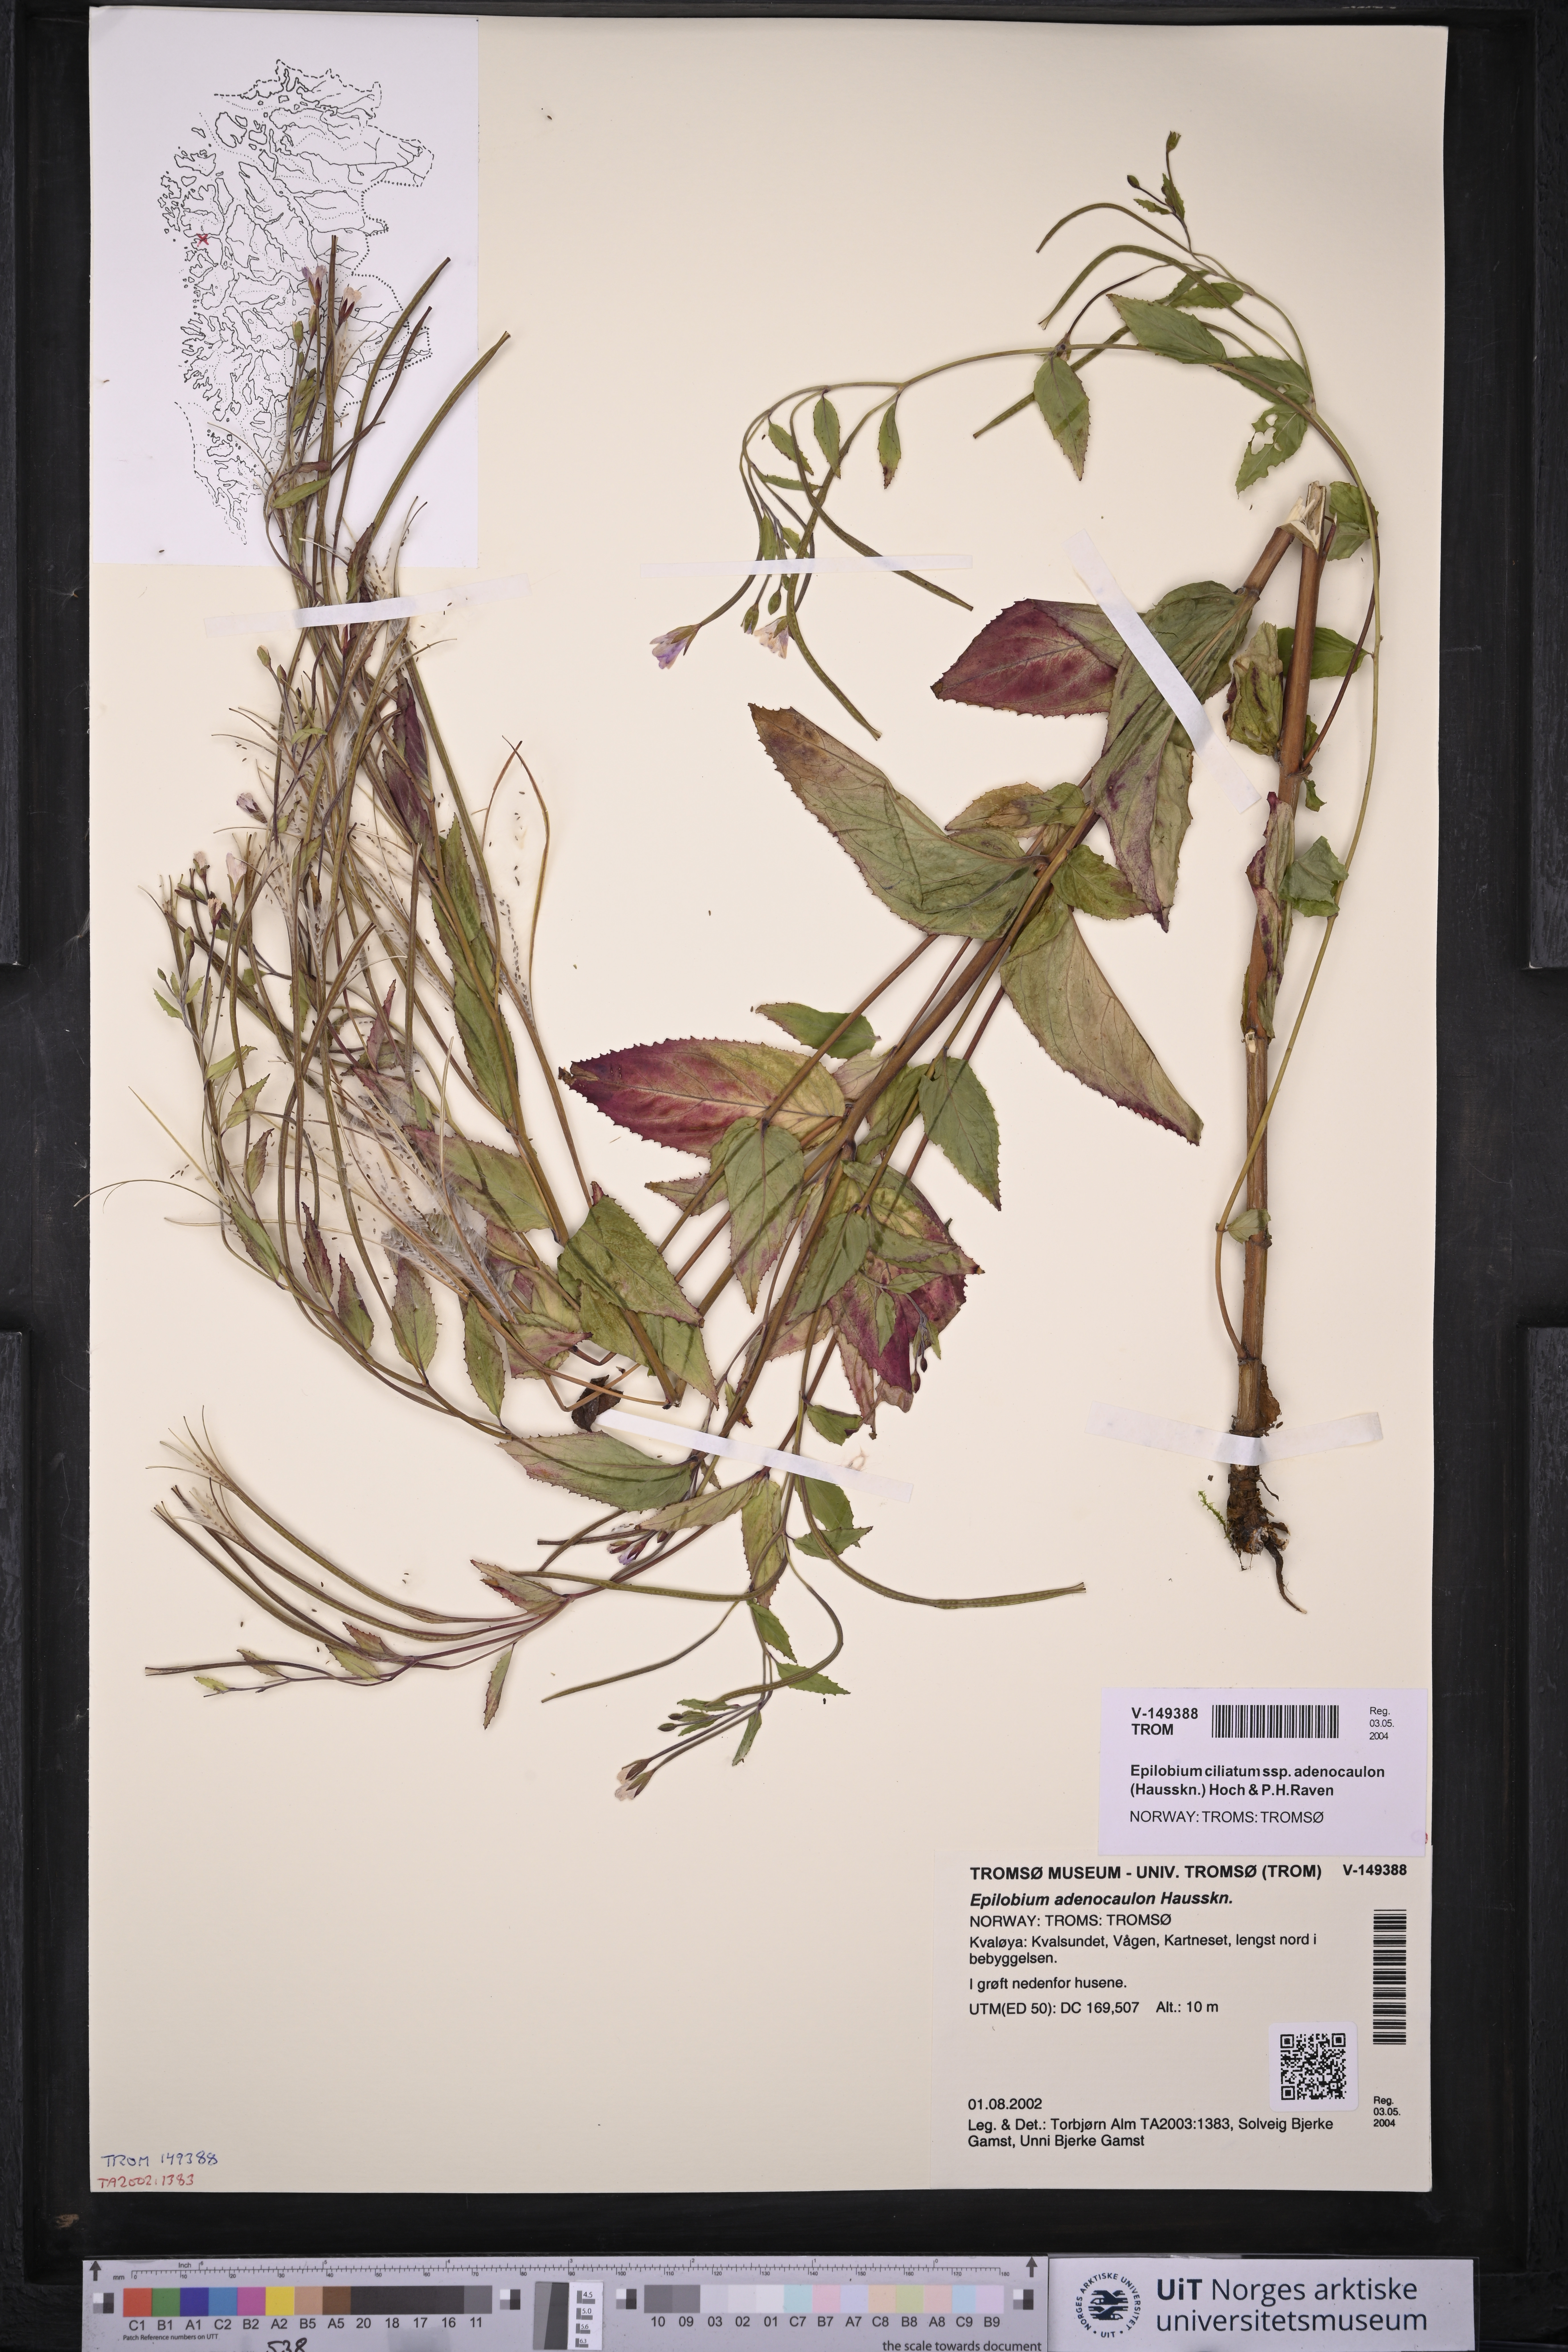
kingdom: Plantae
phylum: Tracheophyta
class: Magnoliopsida
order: Myrtales
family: Onagraceae
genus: Epilobium
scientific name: Epilobium ciliatum
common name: American willowherb
